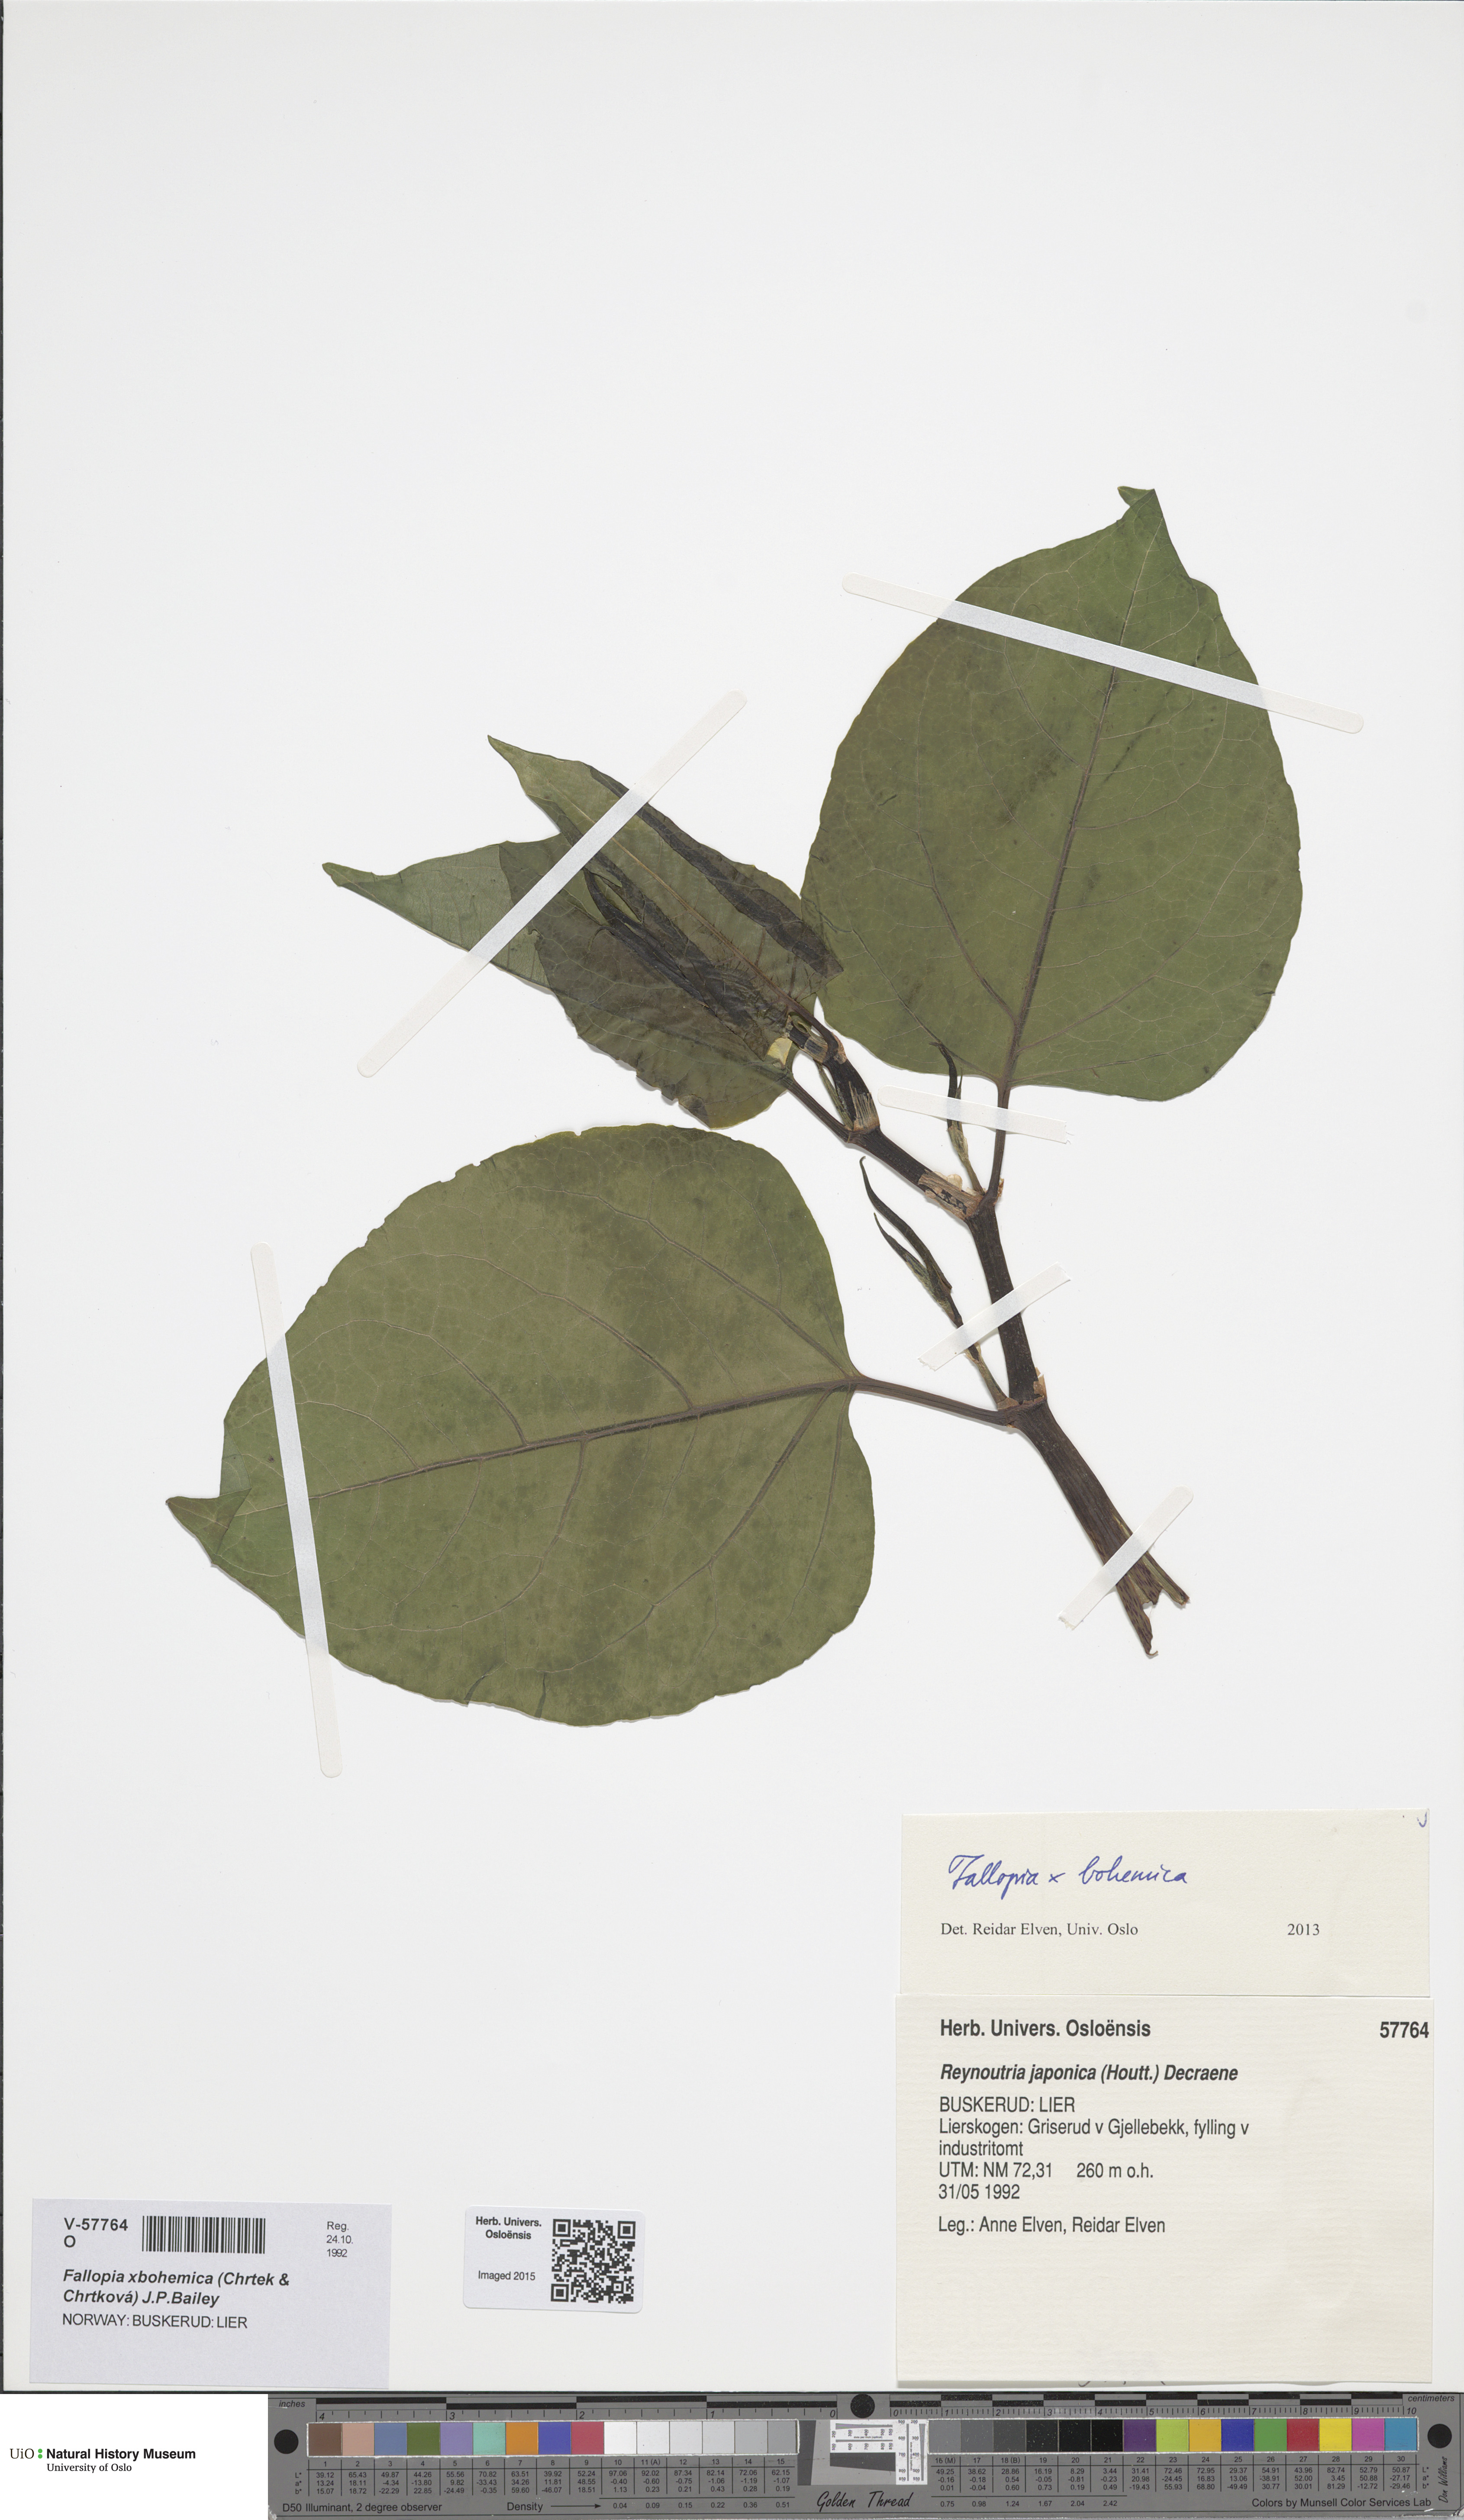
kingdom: Plantae
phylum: Tracheophyta
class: Magnoliopsida
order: Caryophyllales
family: Polygonaceae
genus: Reynoutria
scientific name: Reynoutria bohemica
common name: Bohemian knotweed
